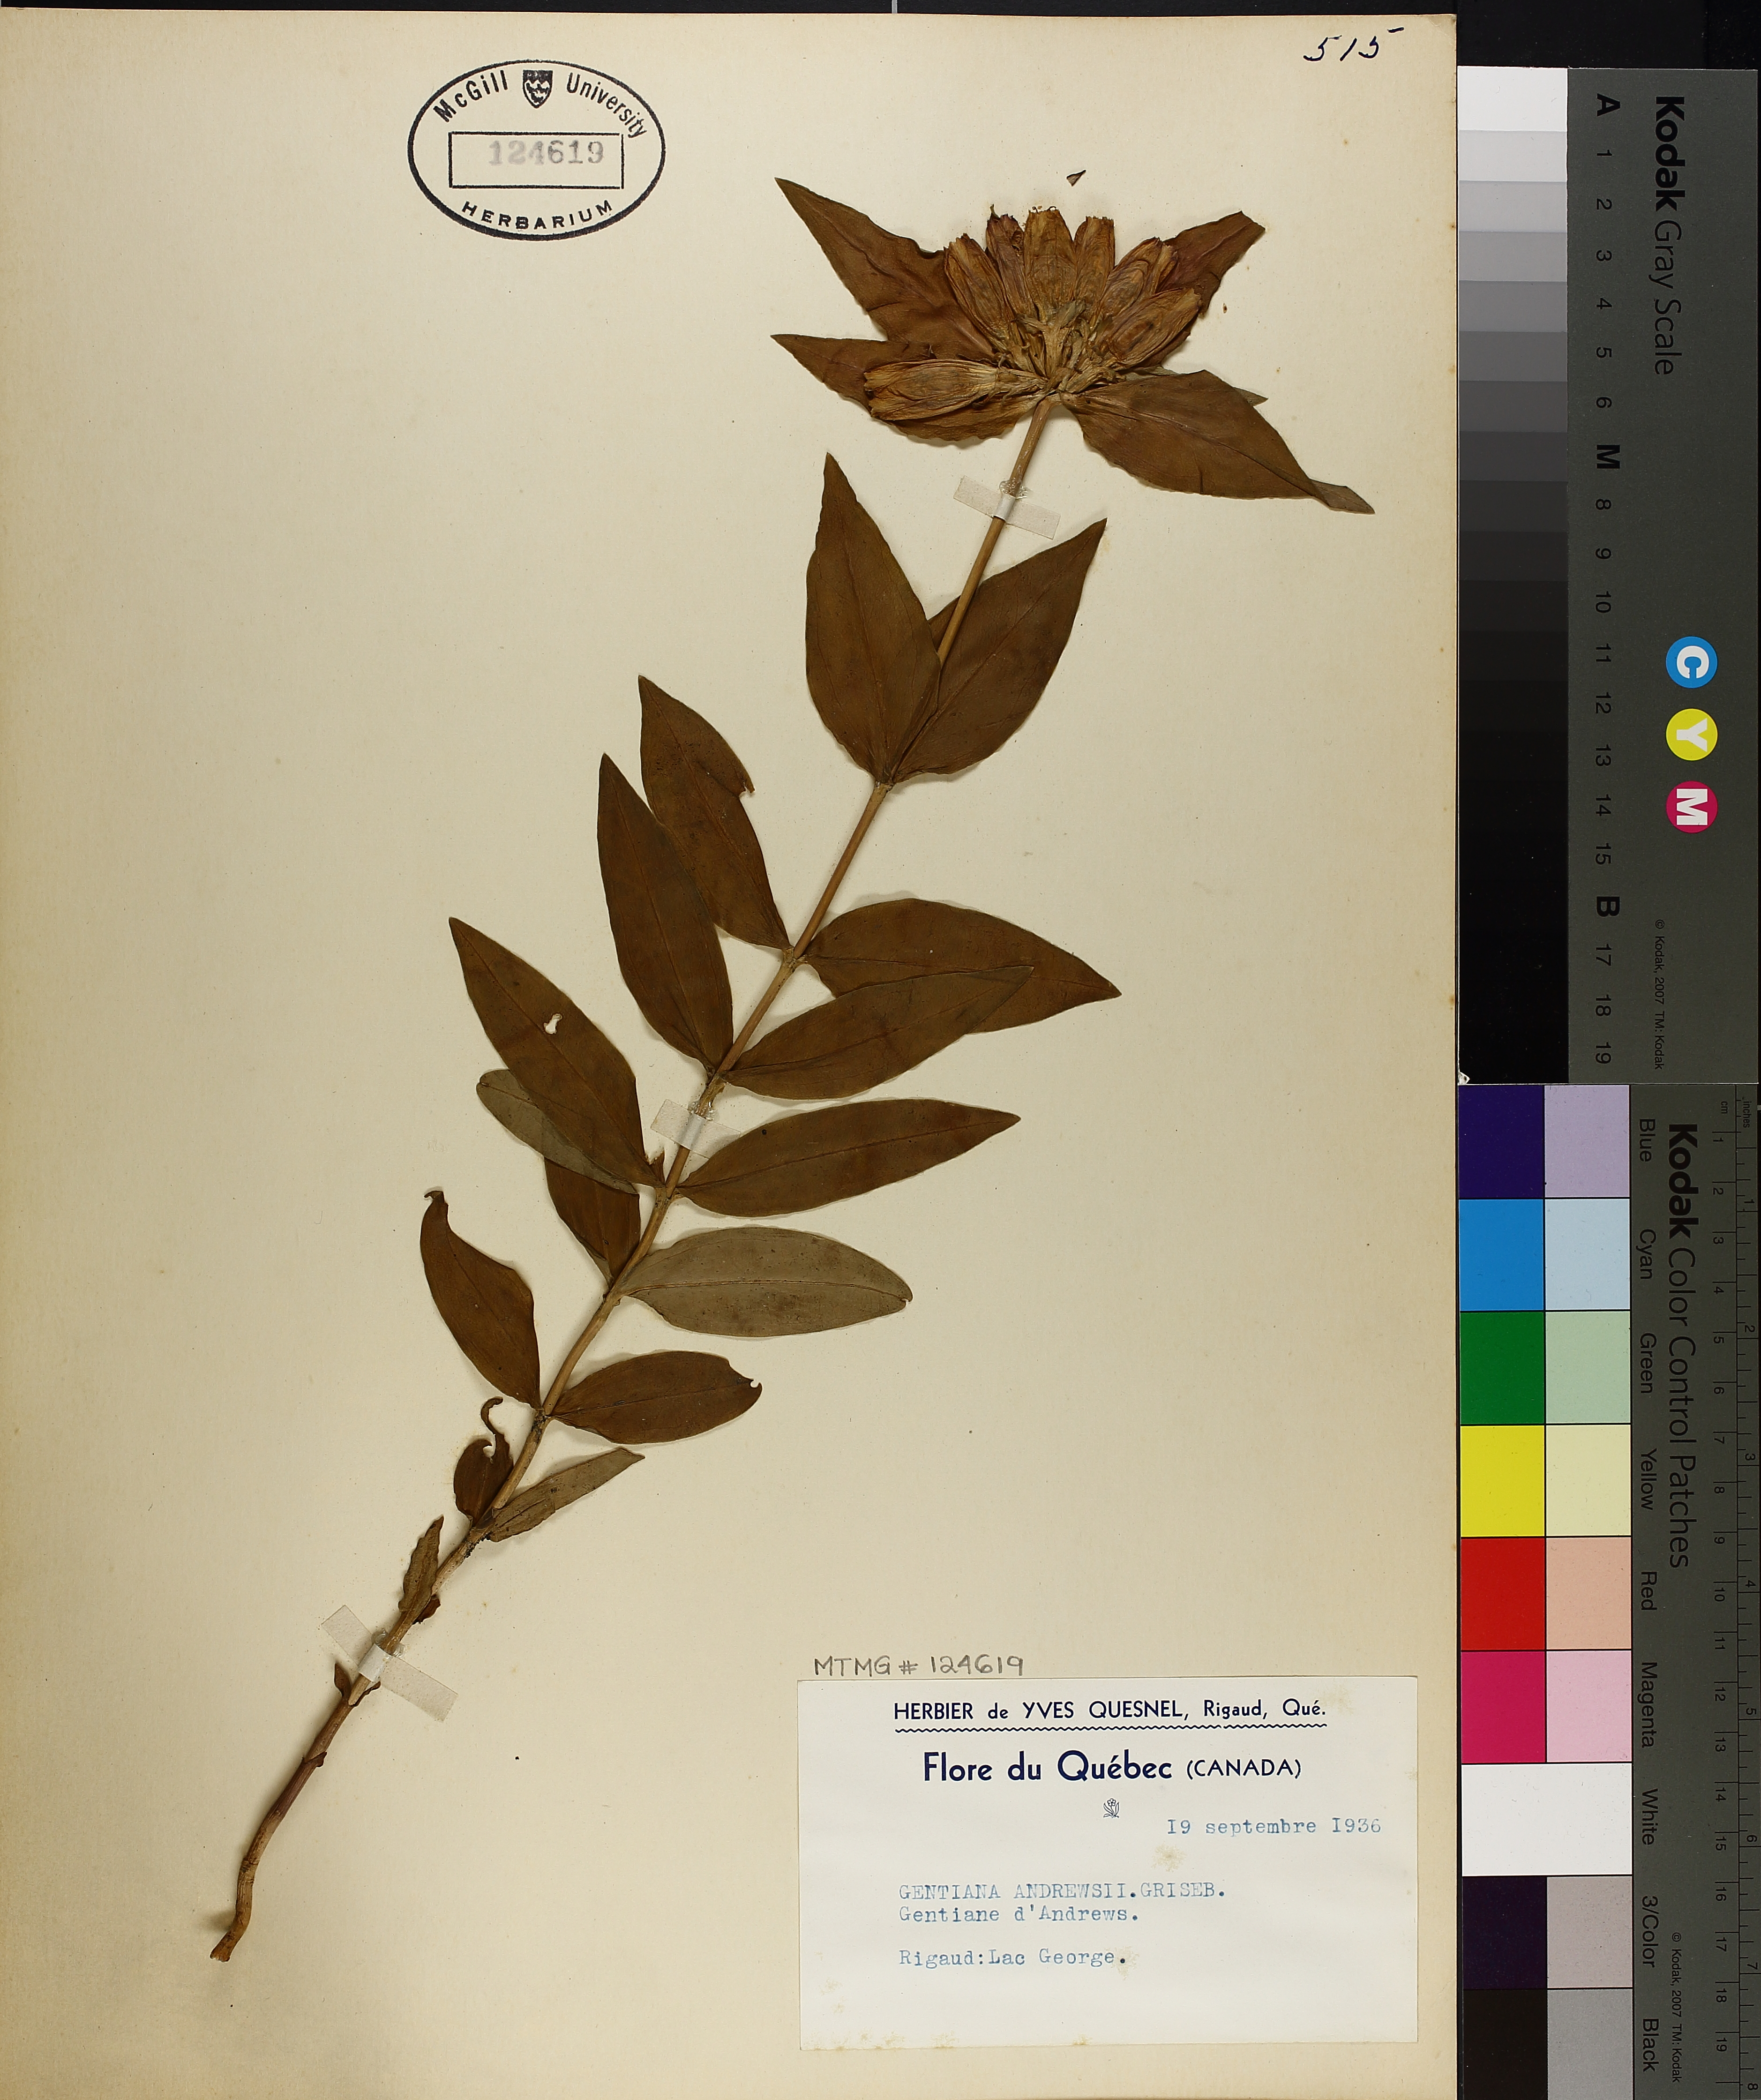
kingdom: Plantae
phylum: Tracheophyta
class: Magnoliopsida
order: Gentianales
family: Gentianaceae
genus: Gentiana
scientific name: Gentiana andrewsii
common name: Bottle gentian
